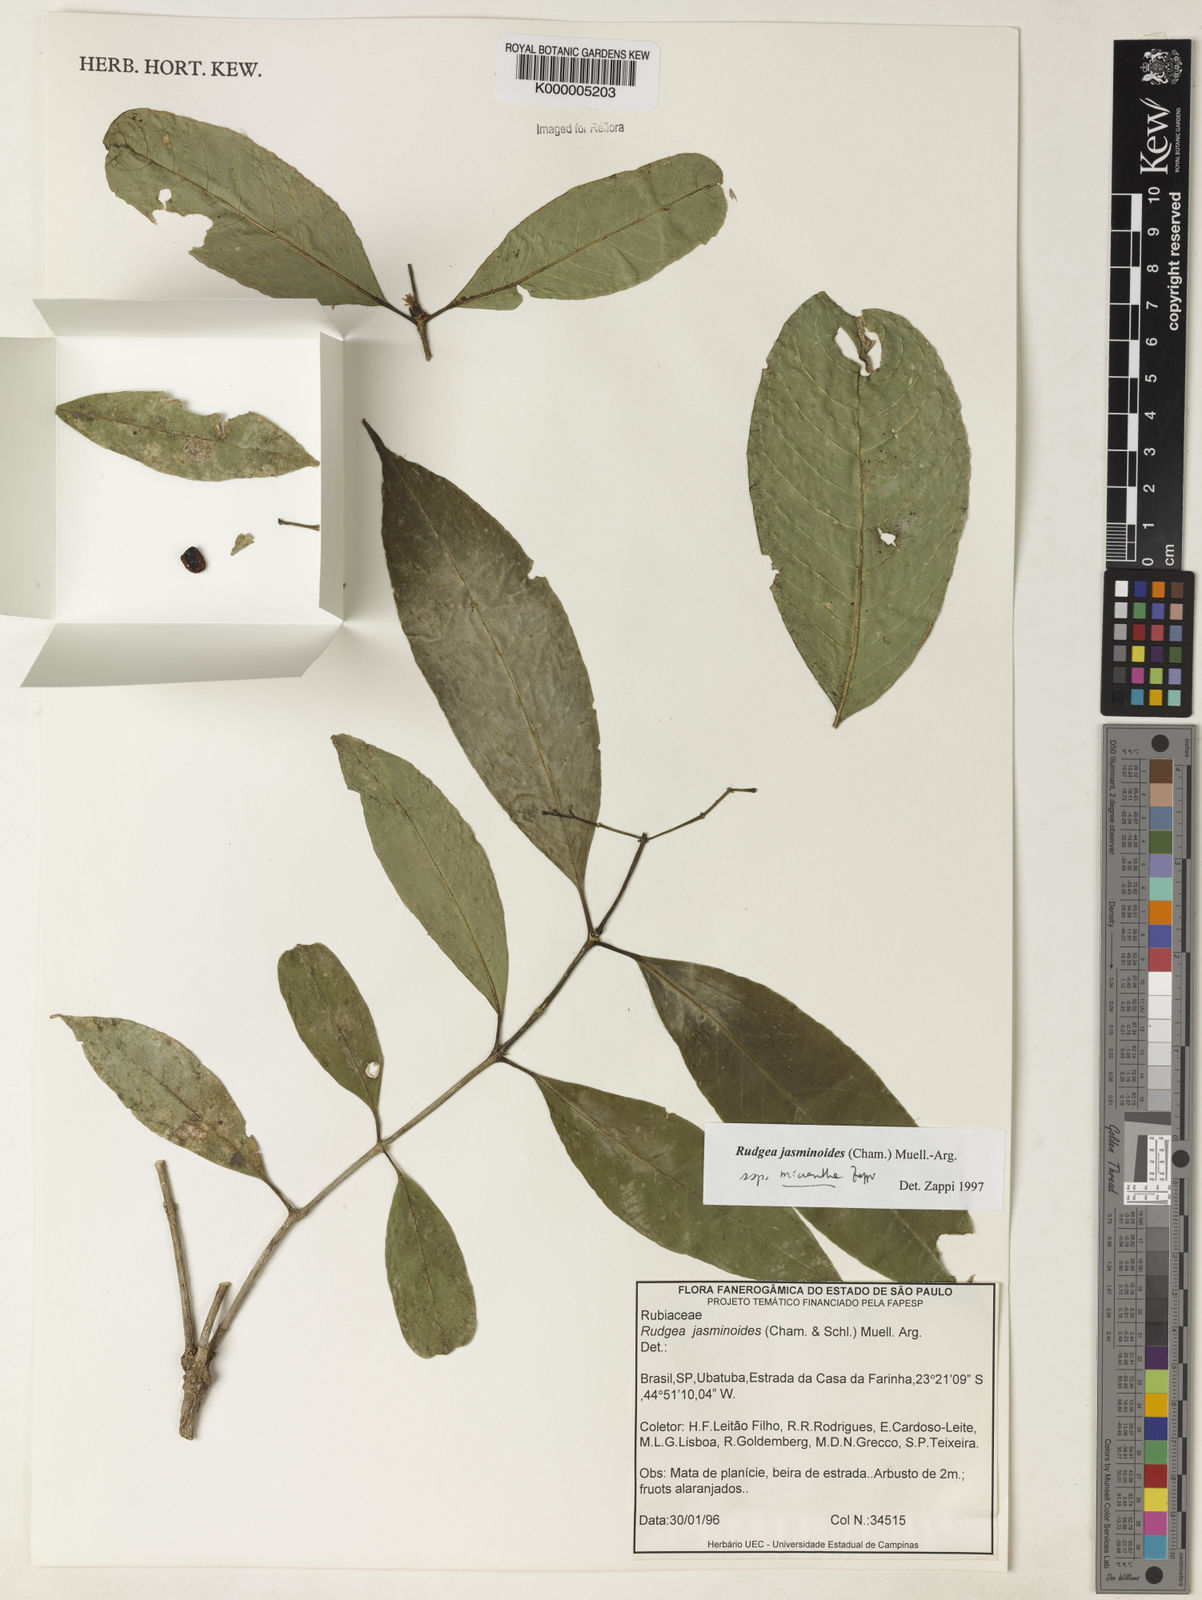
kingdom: Plantae
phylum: Tracheophyta
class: Magnoliopsida
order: Gentianales
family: Rubiaceae
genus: Rudgea
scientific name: Rudgea jasminoides
